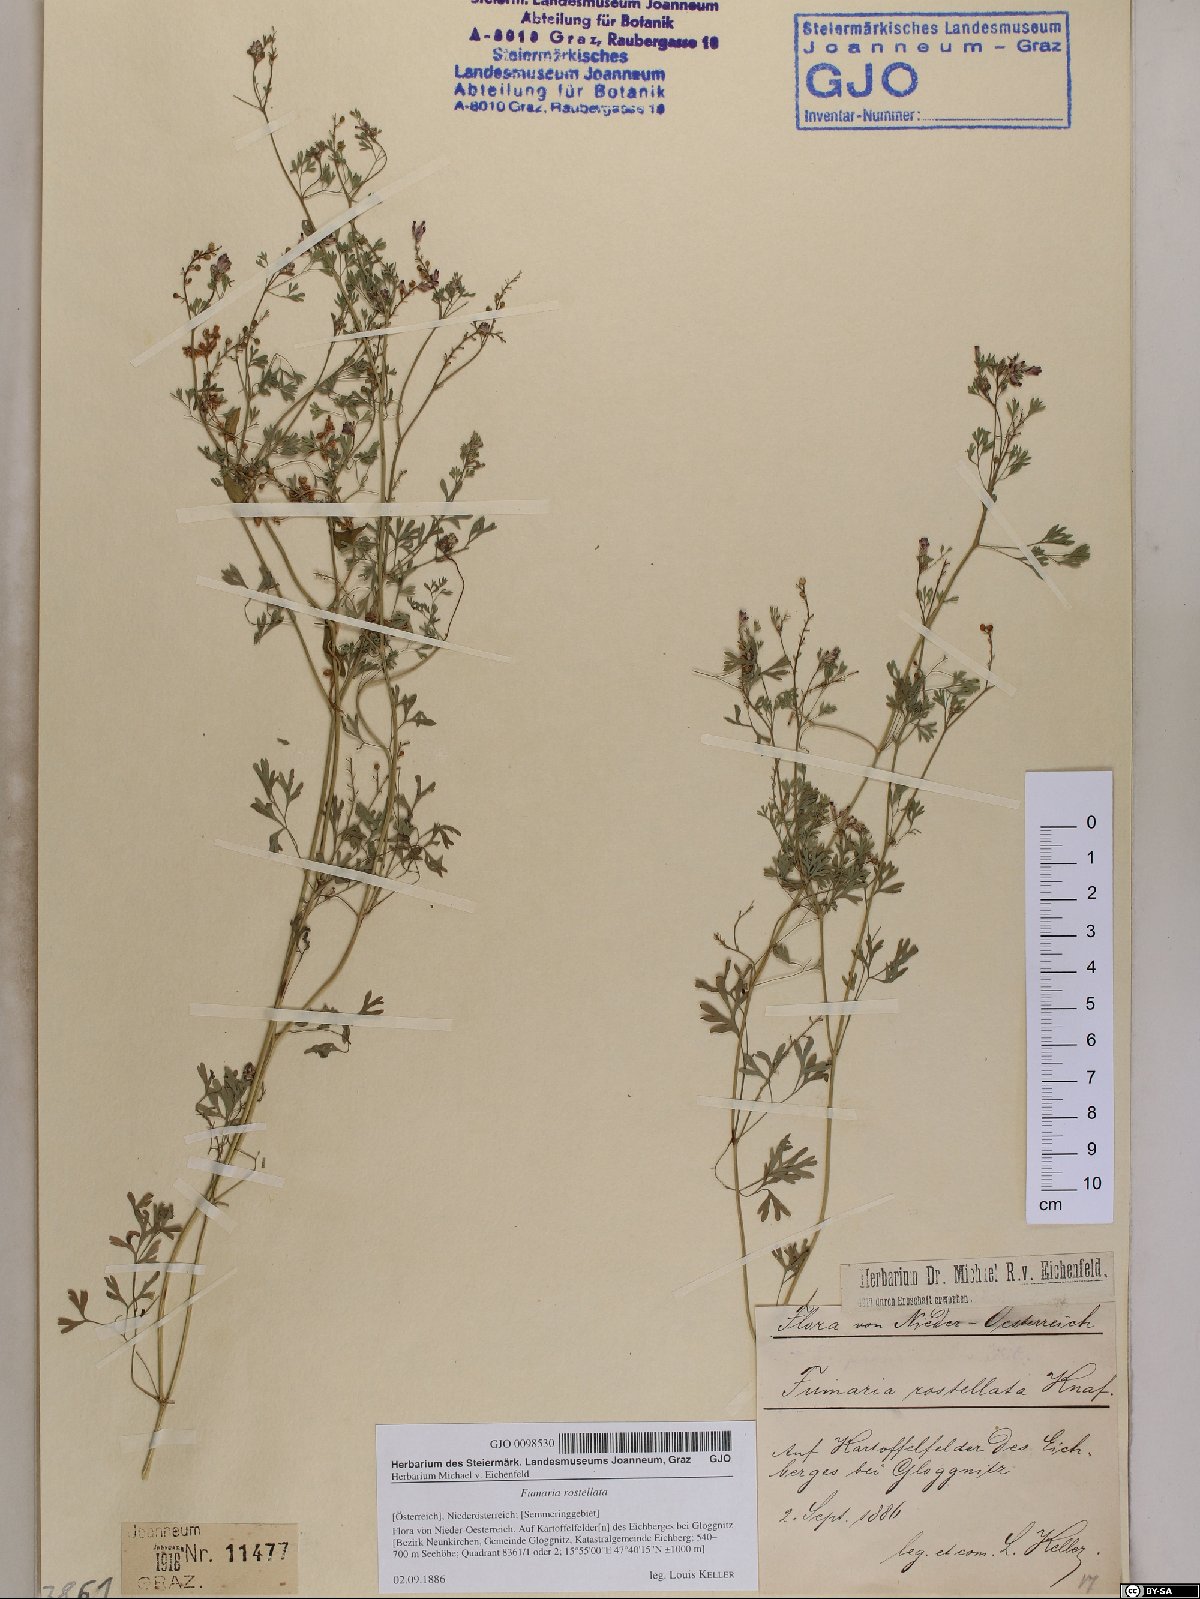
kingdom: Plantae
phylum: Tracheophyta
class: Magnoliopsida
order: Ranunculales
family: Papaveraceae
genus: Fumaria
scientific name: Fumaria rostellata
